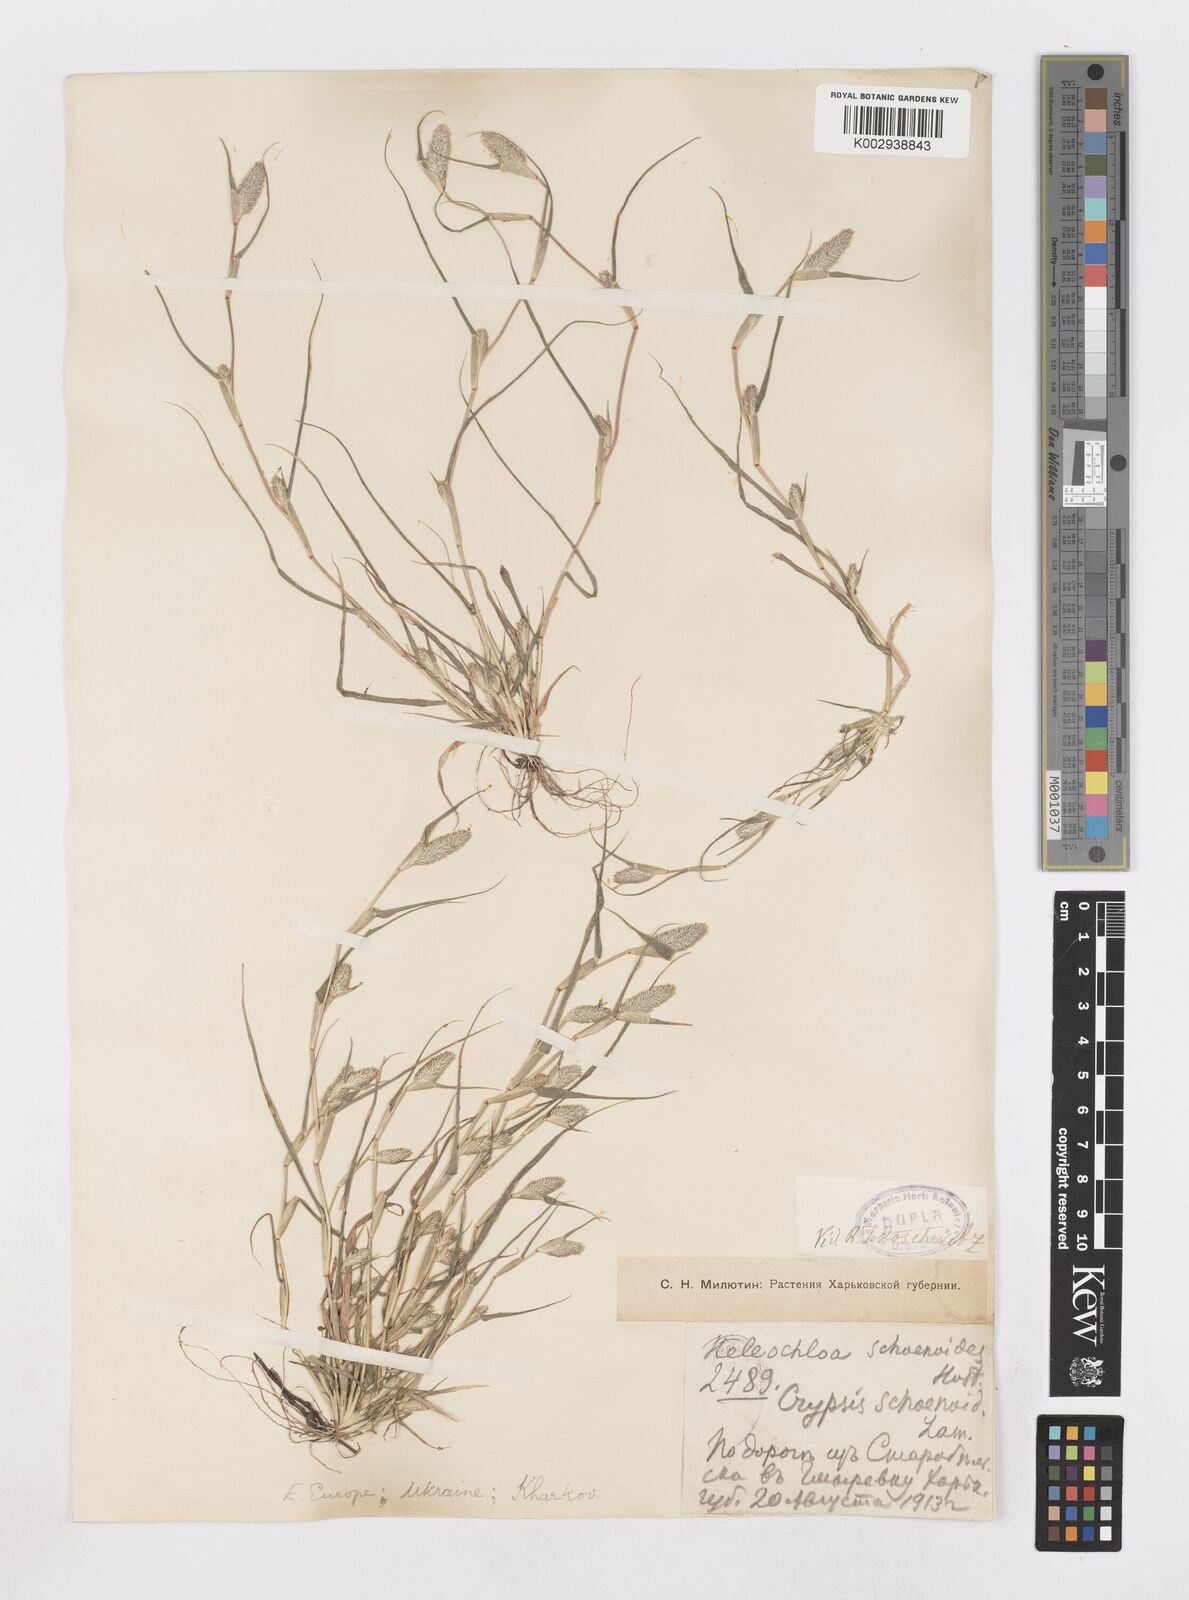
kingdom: Plantae
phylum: Tracheophyta
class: Liliopsida
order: Poales
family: Poaceae
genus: Sporobolus
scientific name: Sporobolus schoenoides
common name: Rush-like timothy
